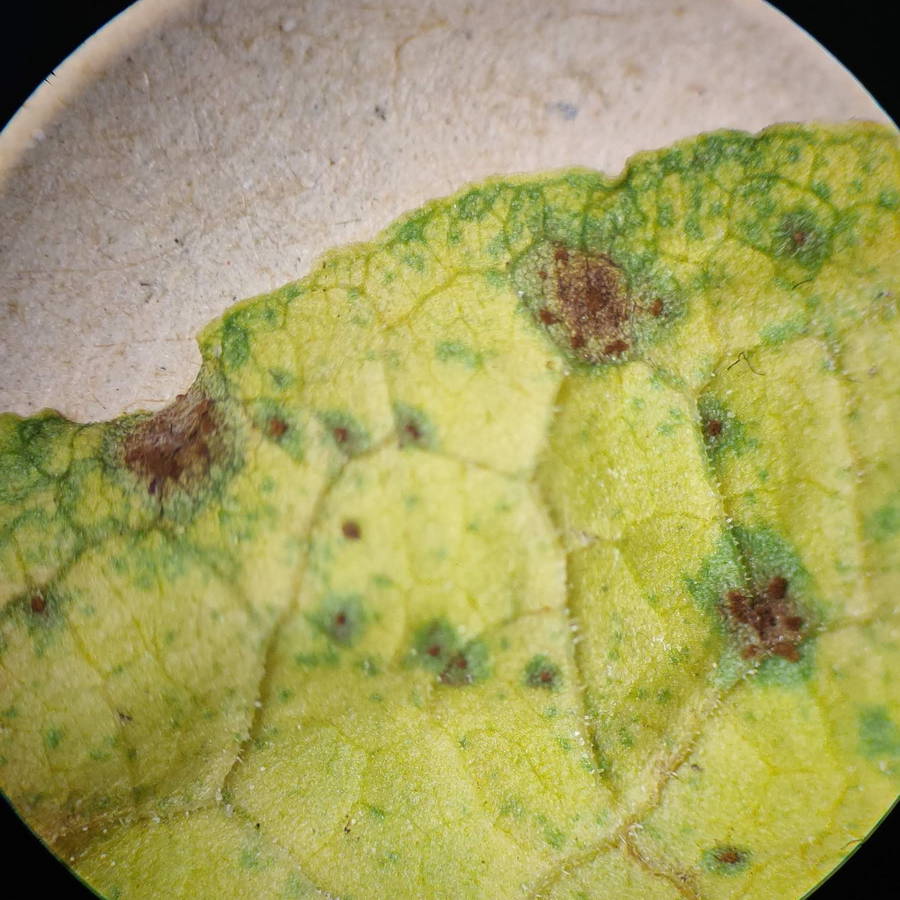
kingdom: Fungi
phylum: Basidiomycota
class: Pucciniomycetes
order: Pucciniales
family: Pucciniaceae
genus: Uromyces
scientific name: Uromyces rumicis
